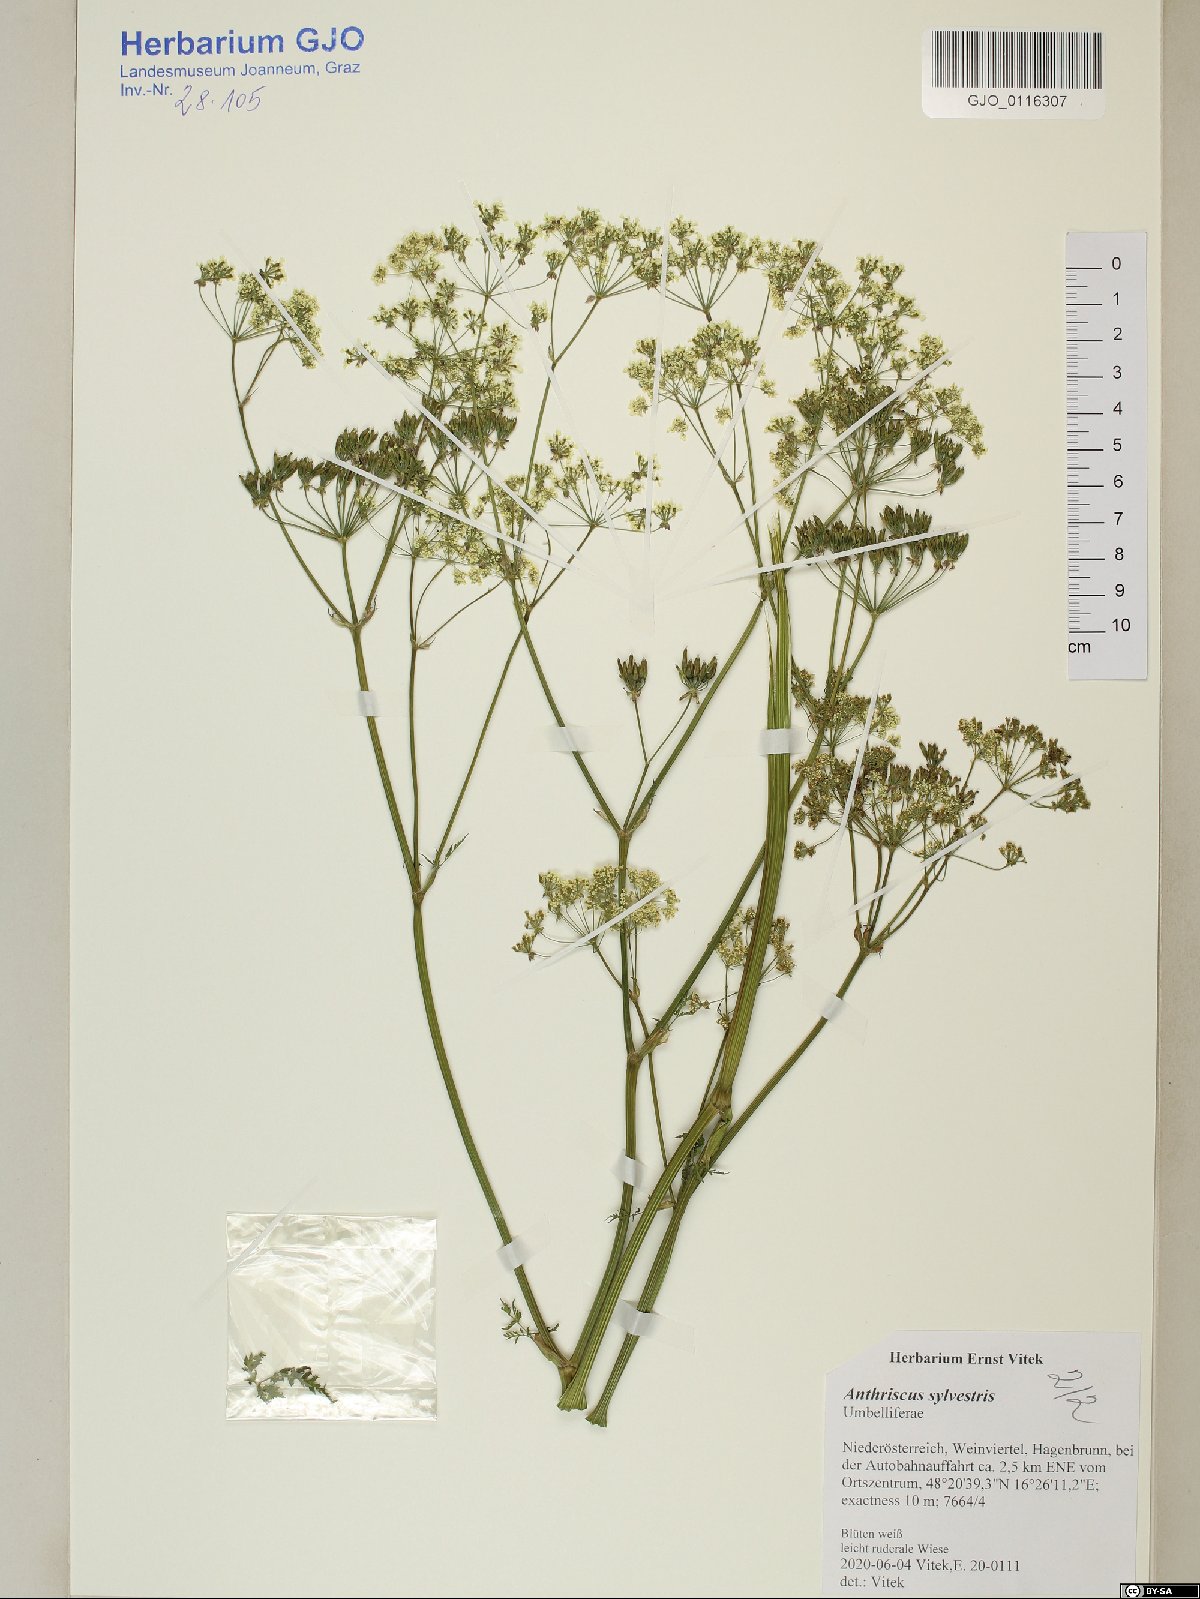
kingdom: Plantae
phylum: Tracheophyta
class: Magnoliopsida
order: Apiales
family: Apiaceae
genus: Anthriscus
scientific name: Anthriscus sylvestris
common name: Cow parsley
